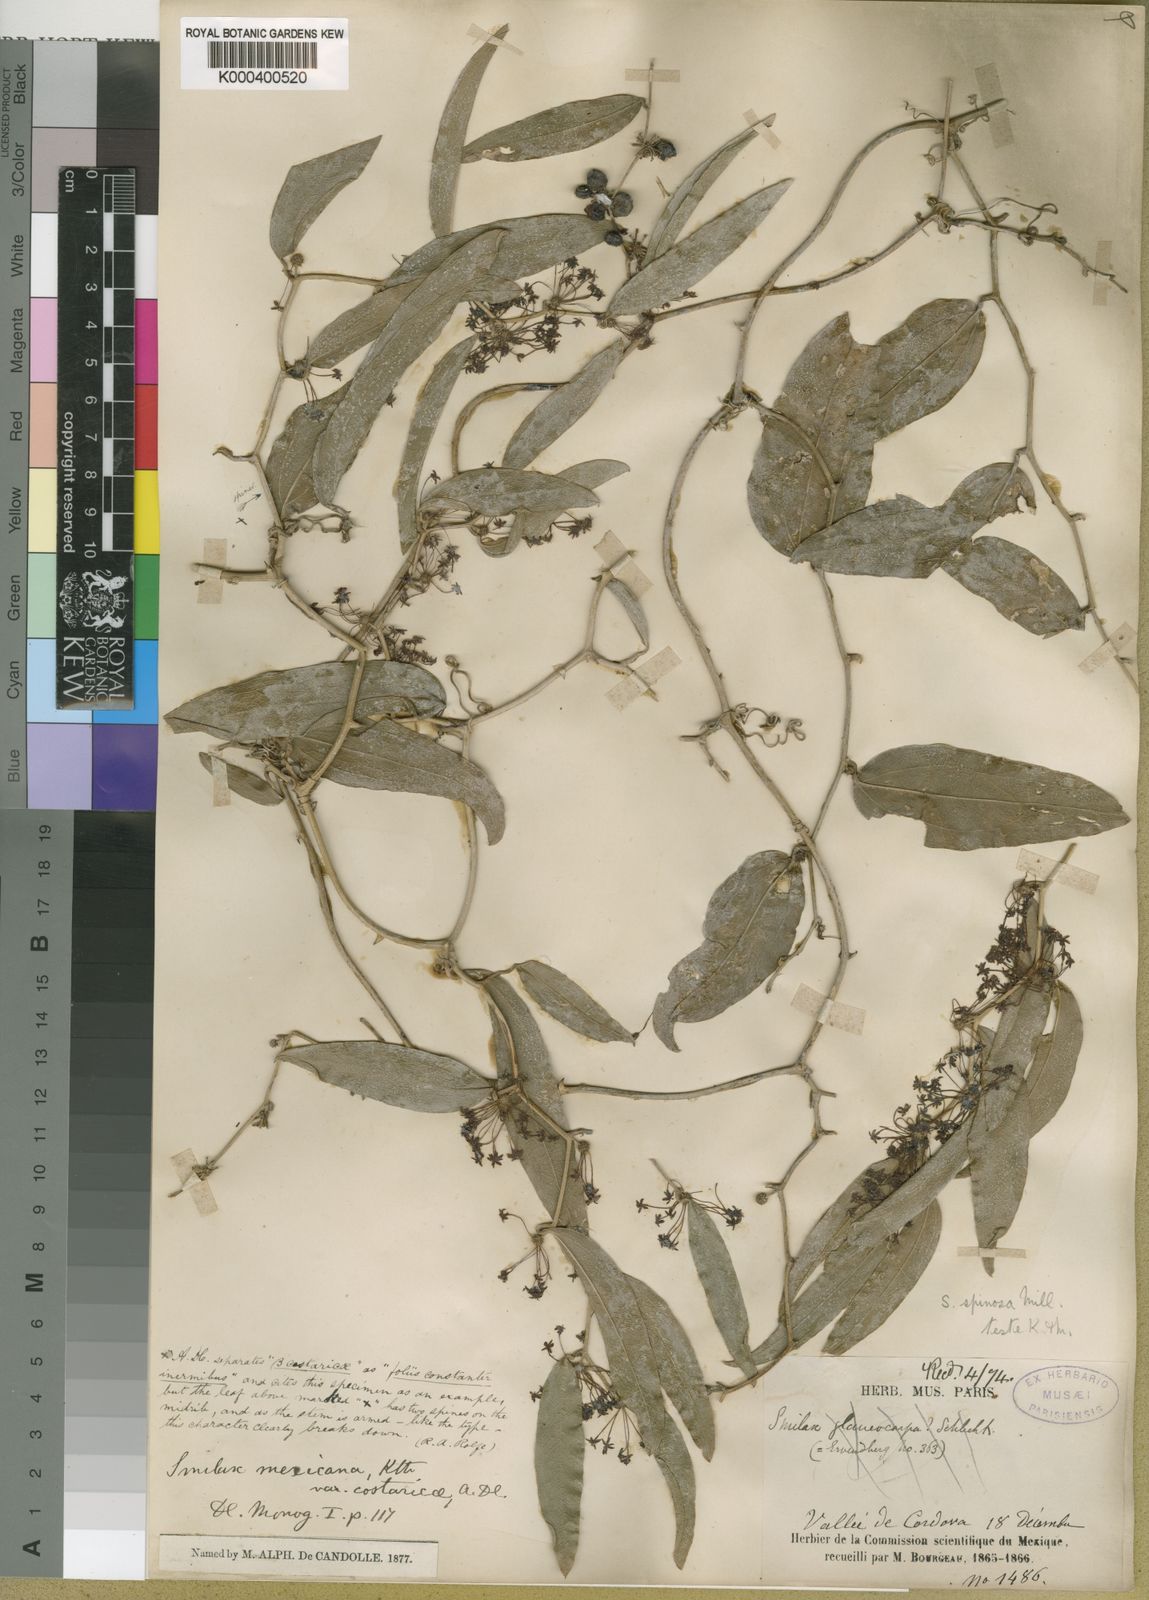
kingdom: Plantae
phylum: Tracheophyta
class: Liliopsida
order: Liliales
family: Smilacaceae
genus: Smilax
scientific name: Smilax spinosa
